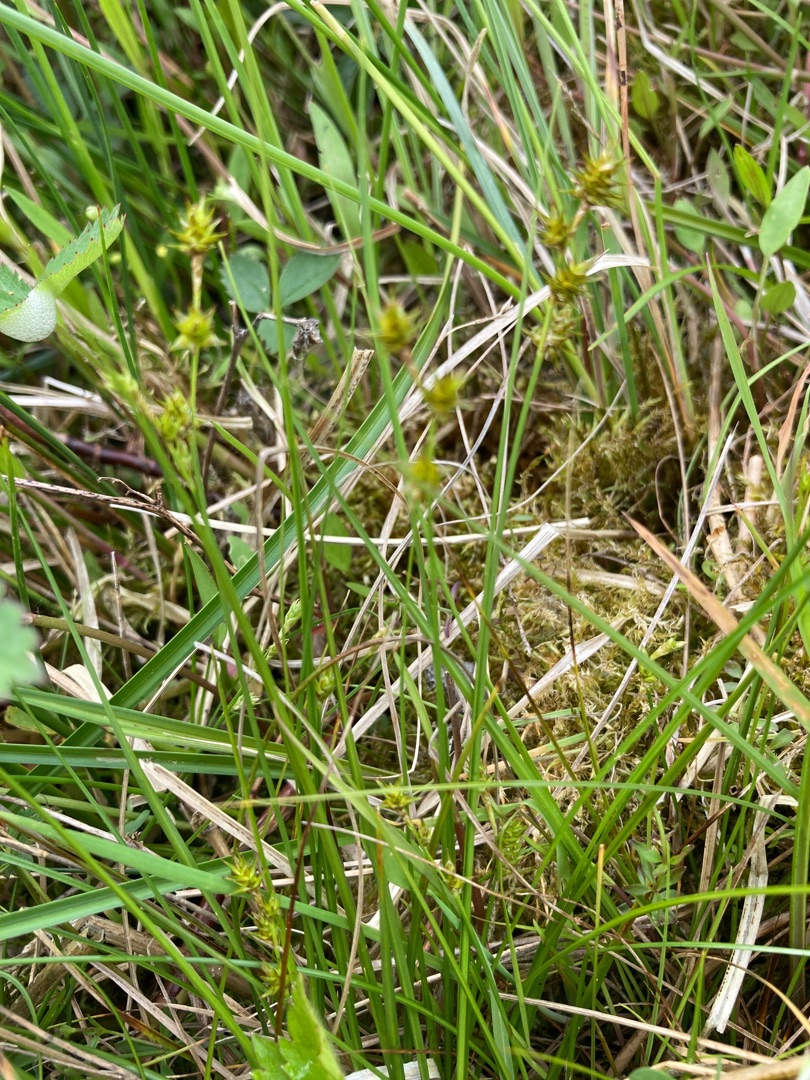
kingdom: Plantae
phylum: Tracheophyta
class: Liliopsida
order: Poales
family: Cyperaceae
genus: Carex
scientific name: Carex echinata
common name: Stjerne-star
